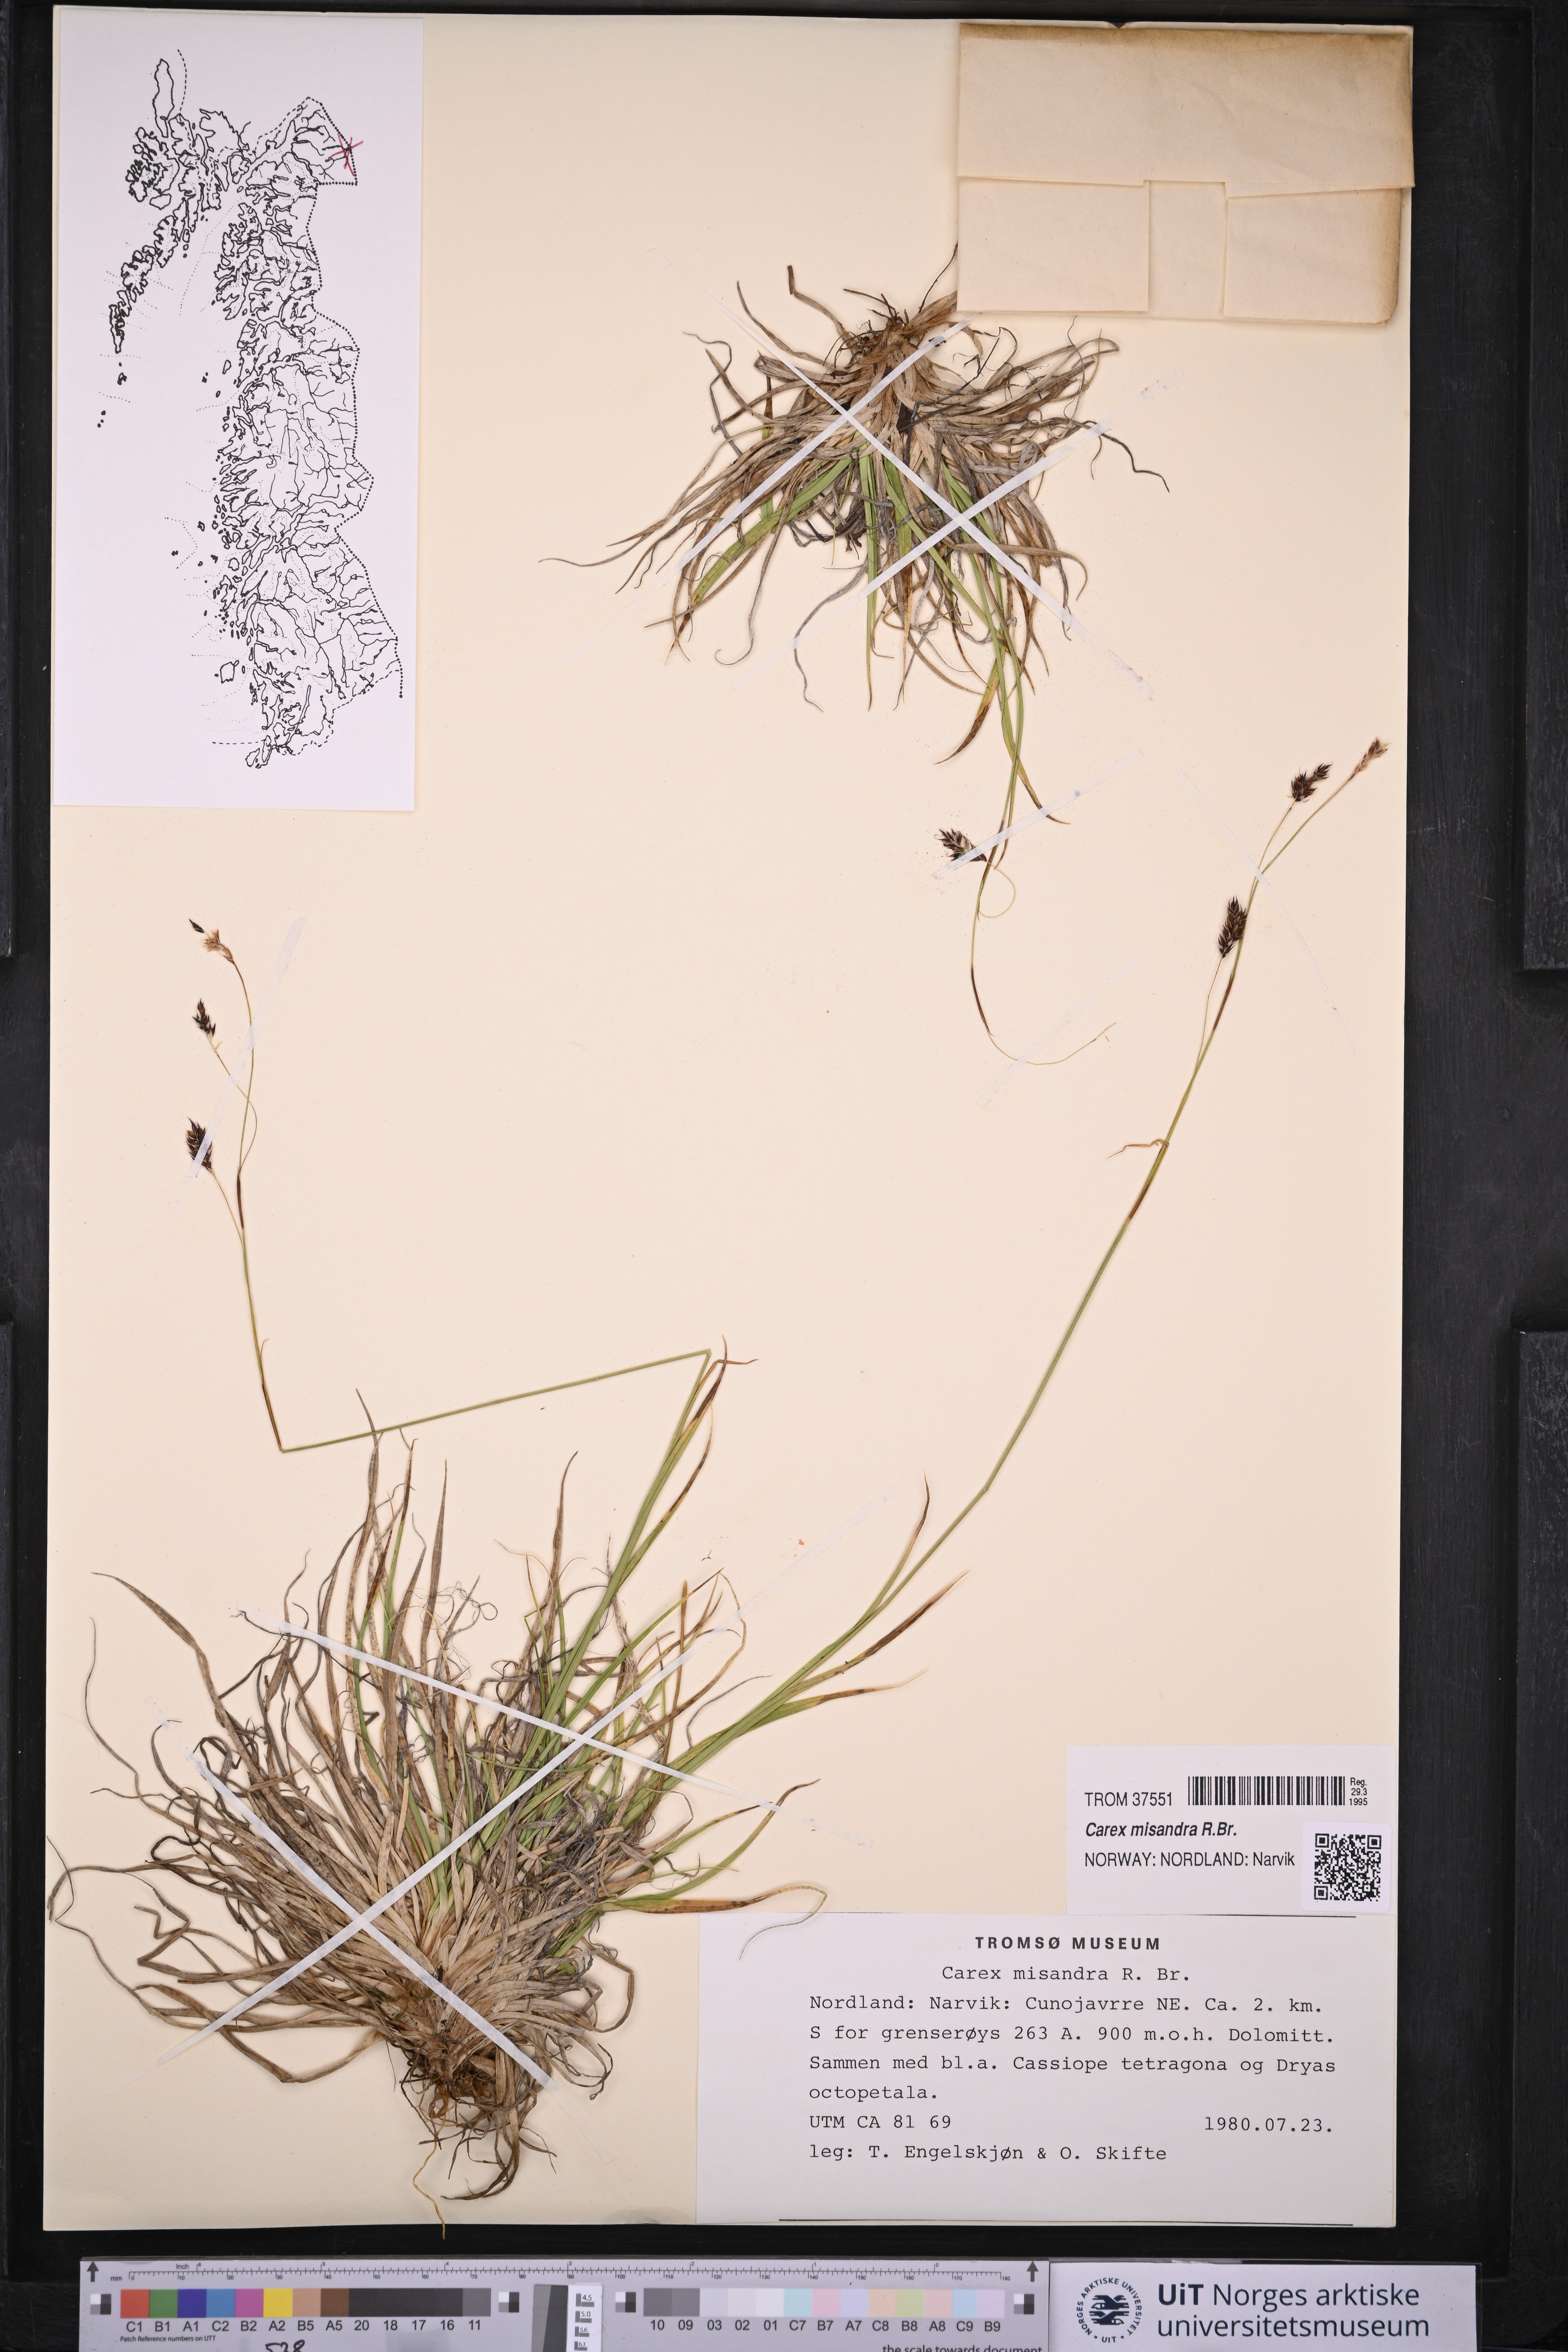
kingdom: Plantae
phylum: Tracheophyta
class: Liliopsida
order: Poales
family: Cyperaceae
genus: Carex
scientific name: Carex fuliginosa
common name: Few-flowered sedge
